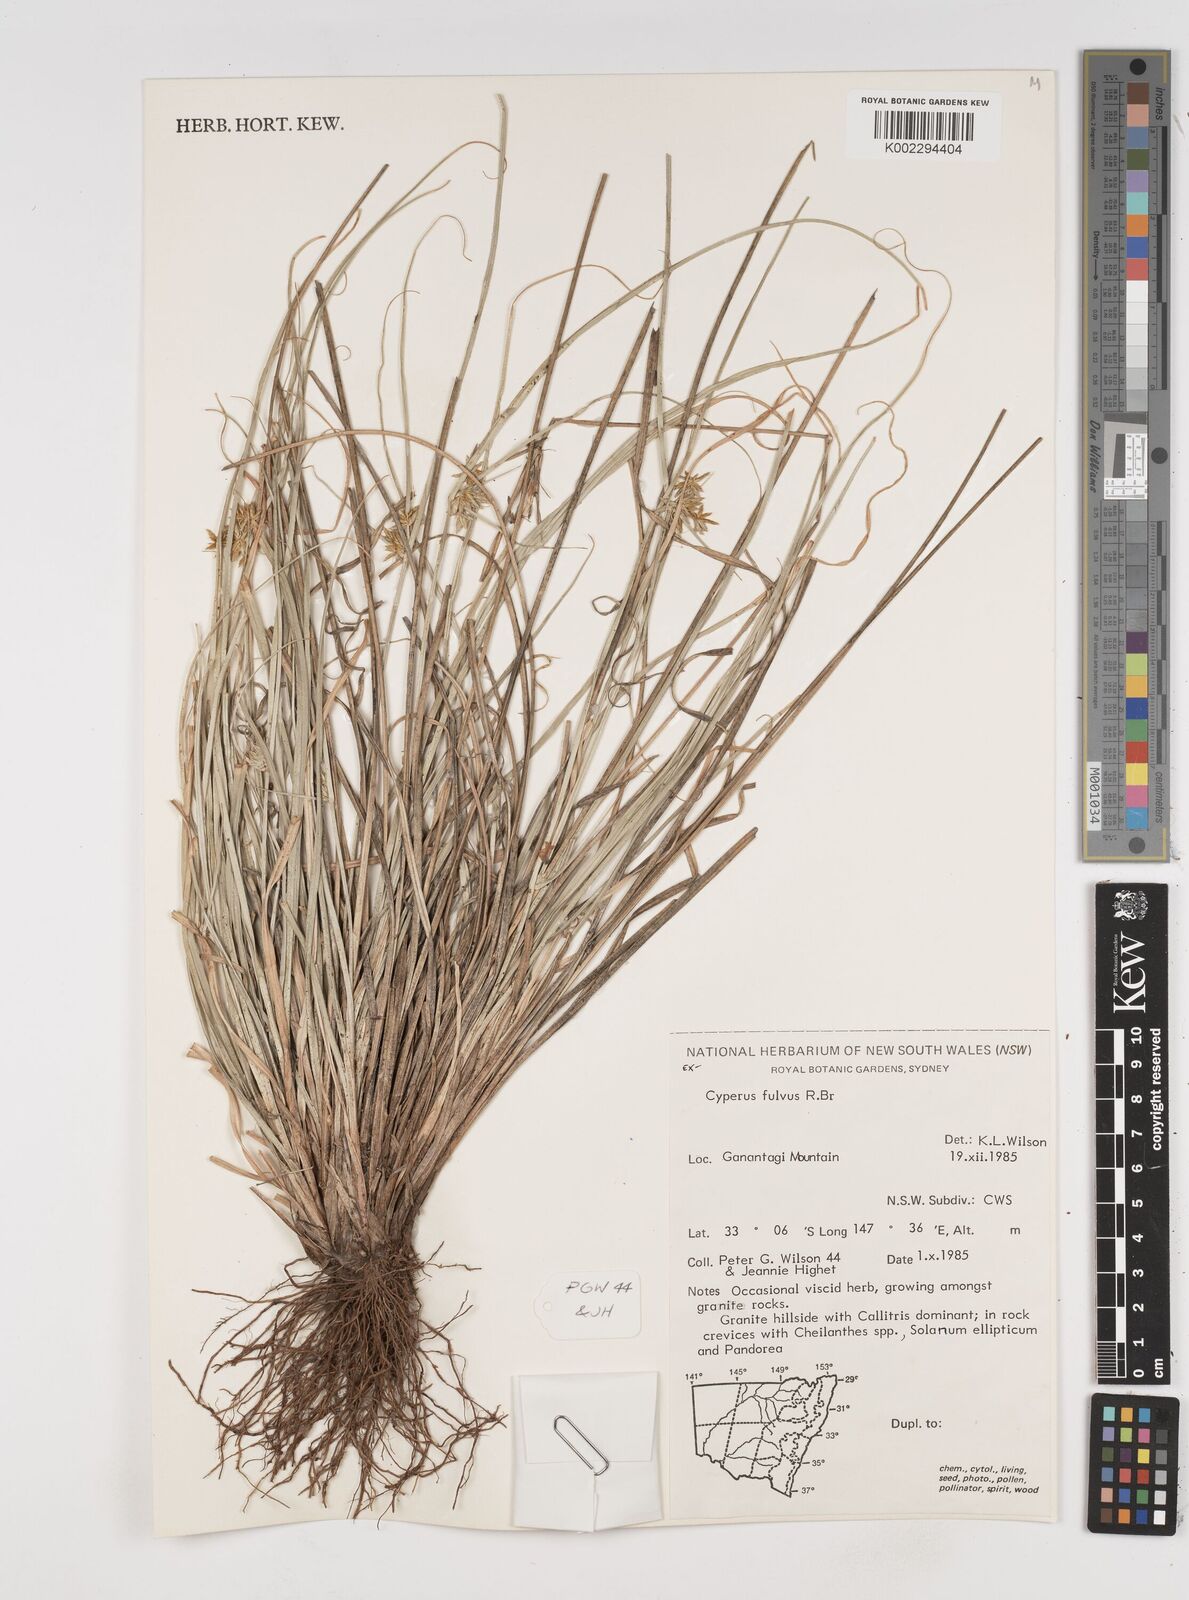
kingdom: Plantae
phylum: Tracheophyta
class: Liliopsida
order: Poales
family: Cyperaceae
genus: Cyperus
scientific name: Cyperus fulvus
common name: Sticky sedge
